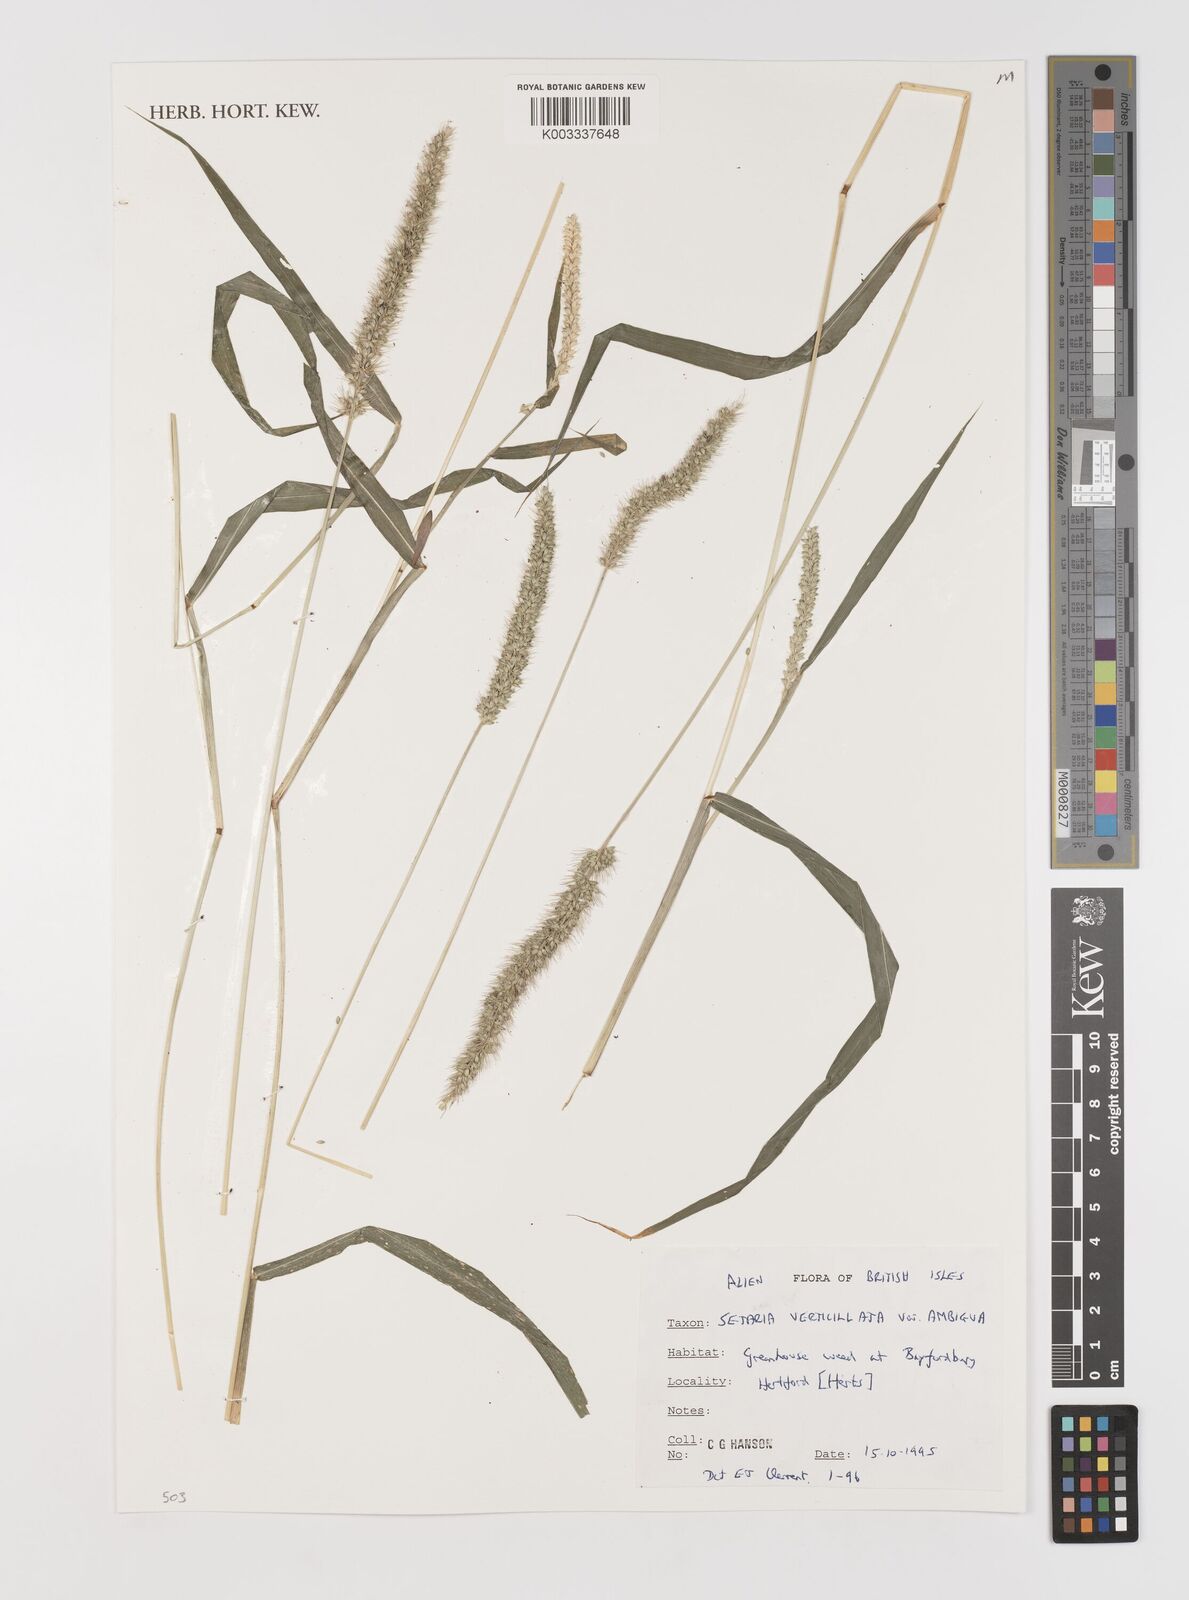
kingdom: Plantae
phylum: Tracheophyta
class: Liliopsida
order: Poales
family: Poaceae
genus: Setaria
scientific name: Setaria verticillata
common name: Hooked bristlegrass
